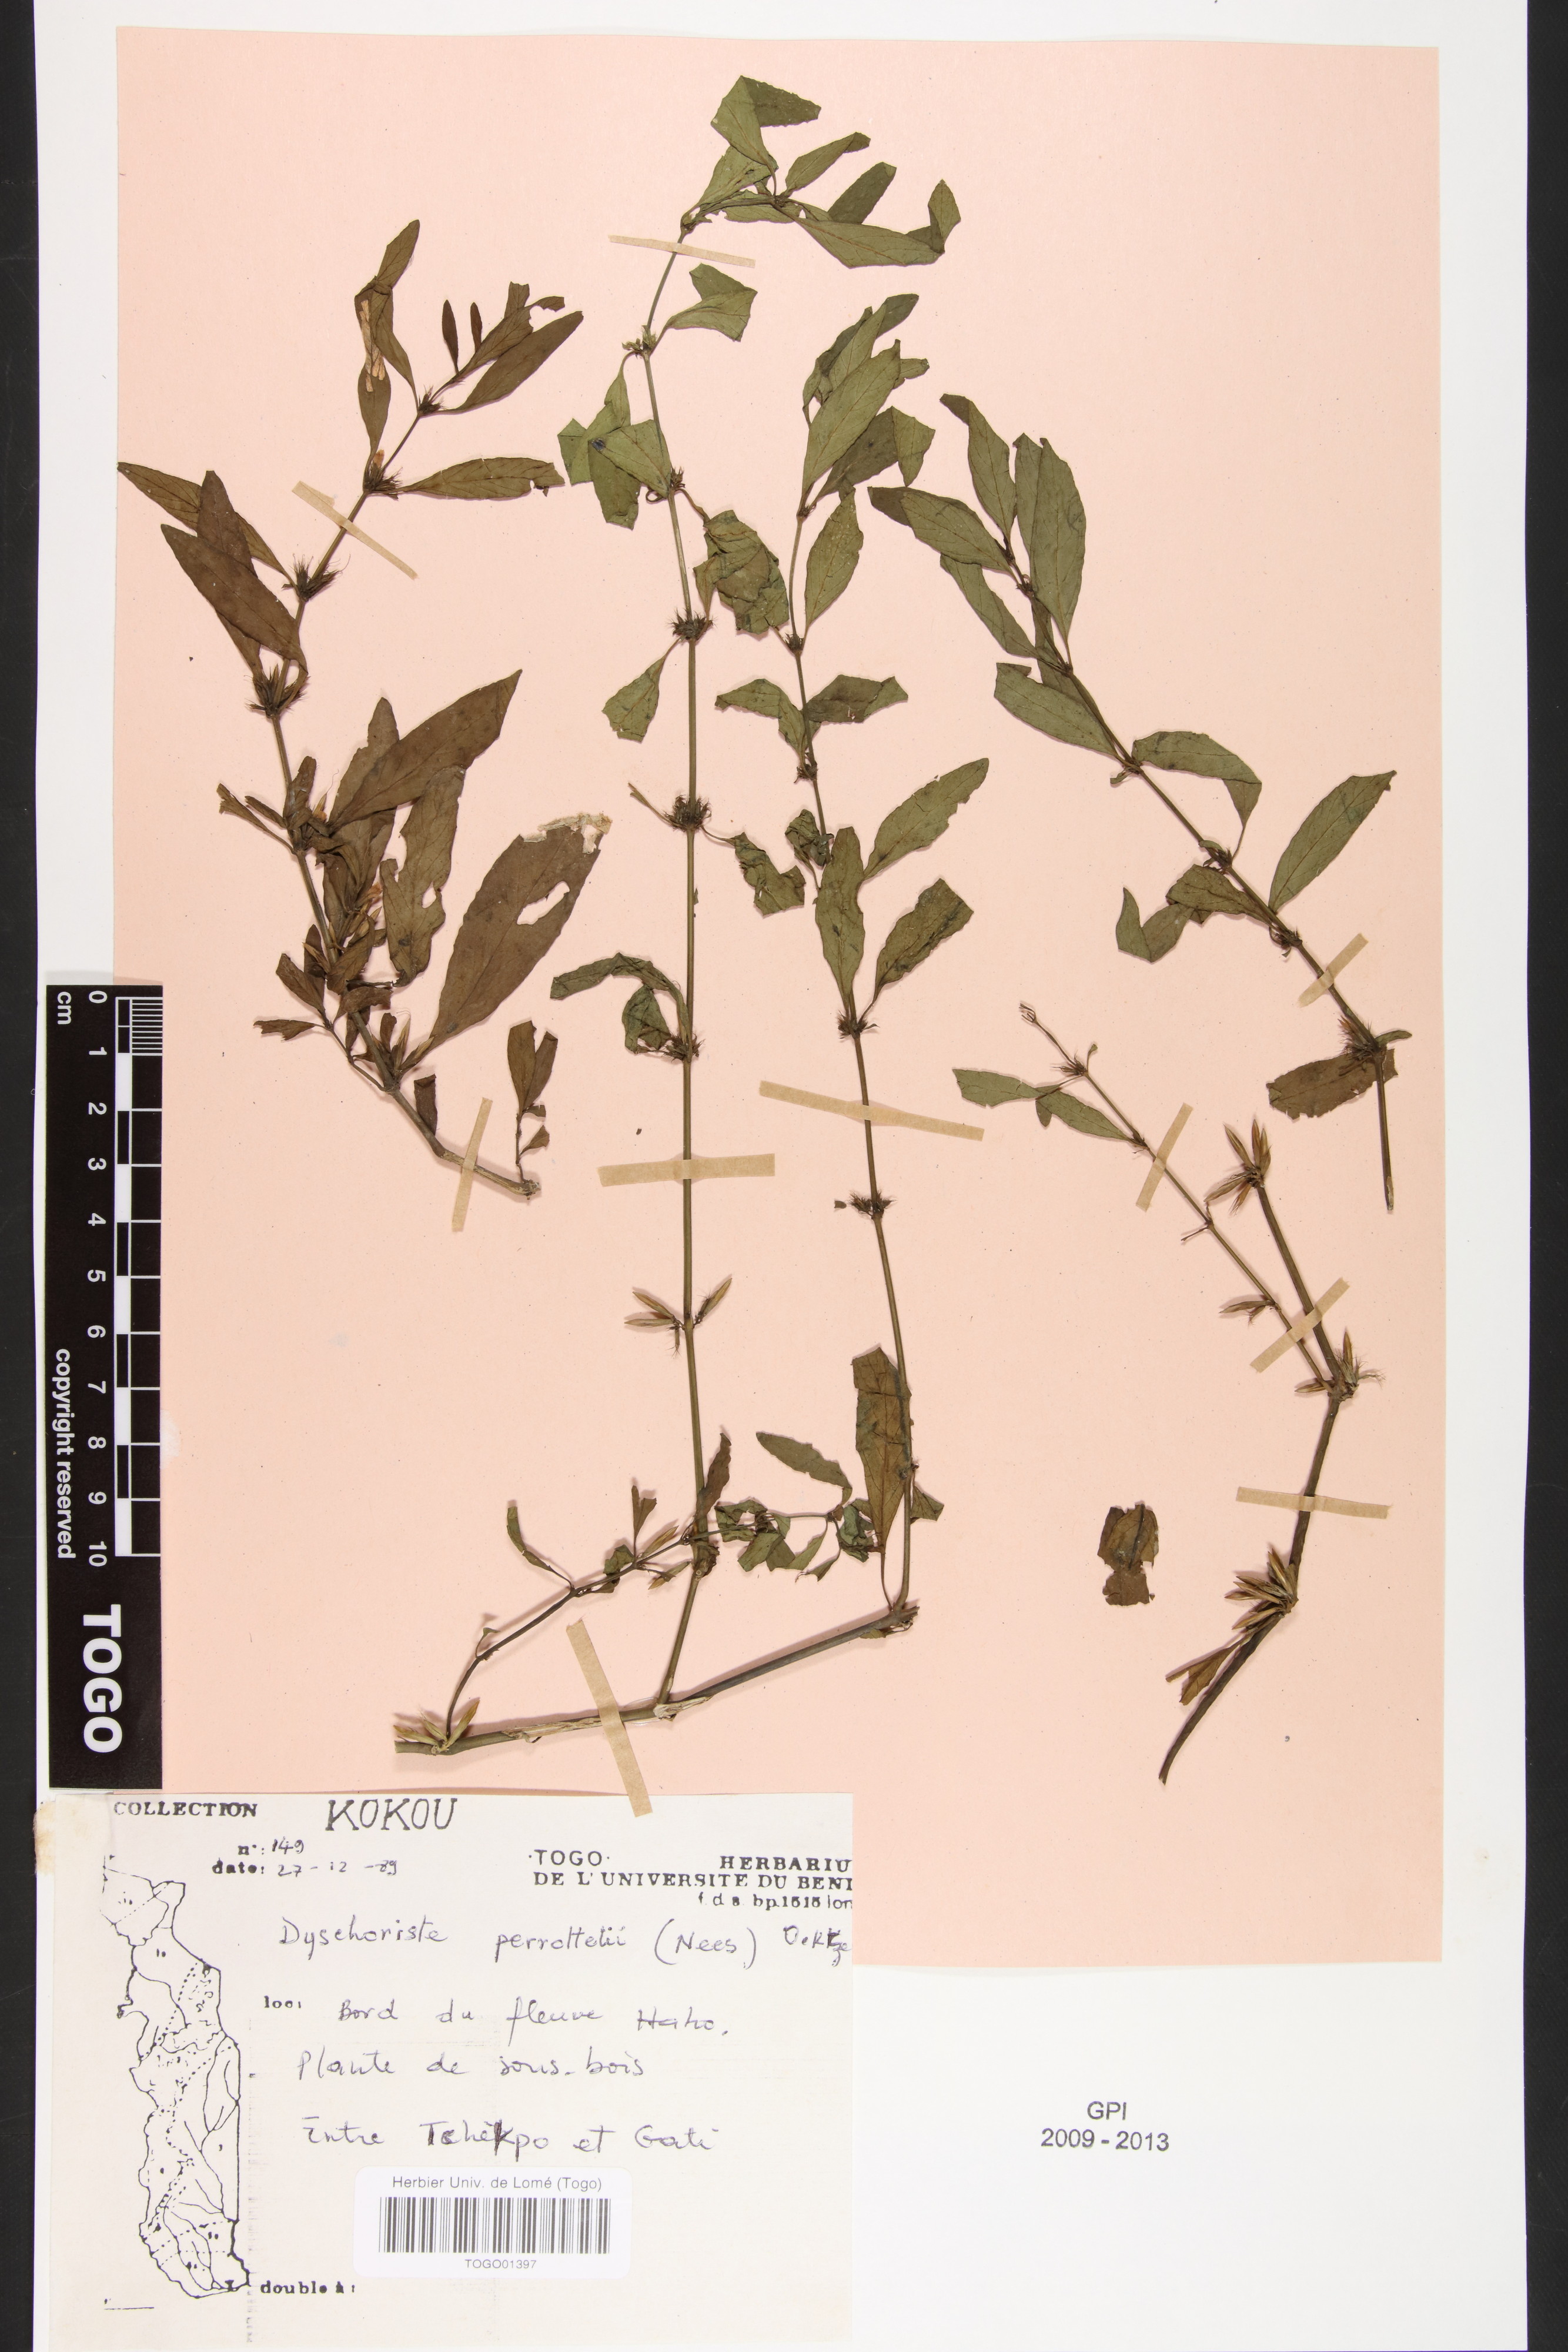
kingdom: Plantae
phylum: Tracheophyta
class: Magnoliopsida
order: Lamiales
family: Acanthaceae
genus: Dyschoriste
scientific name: Dyschoriste nagchana
